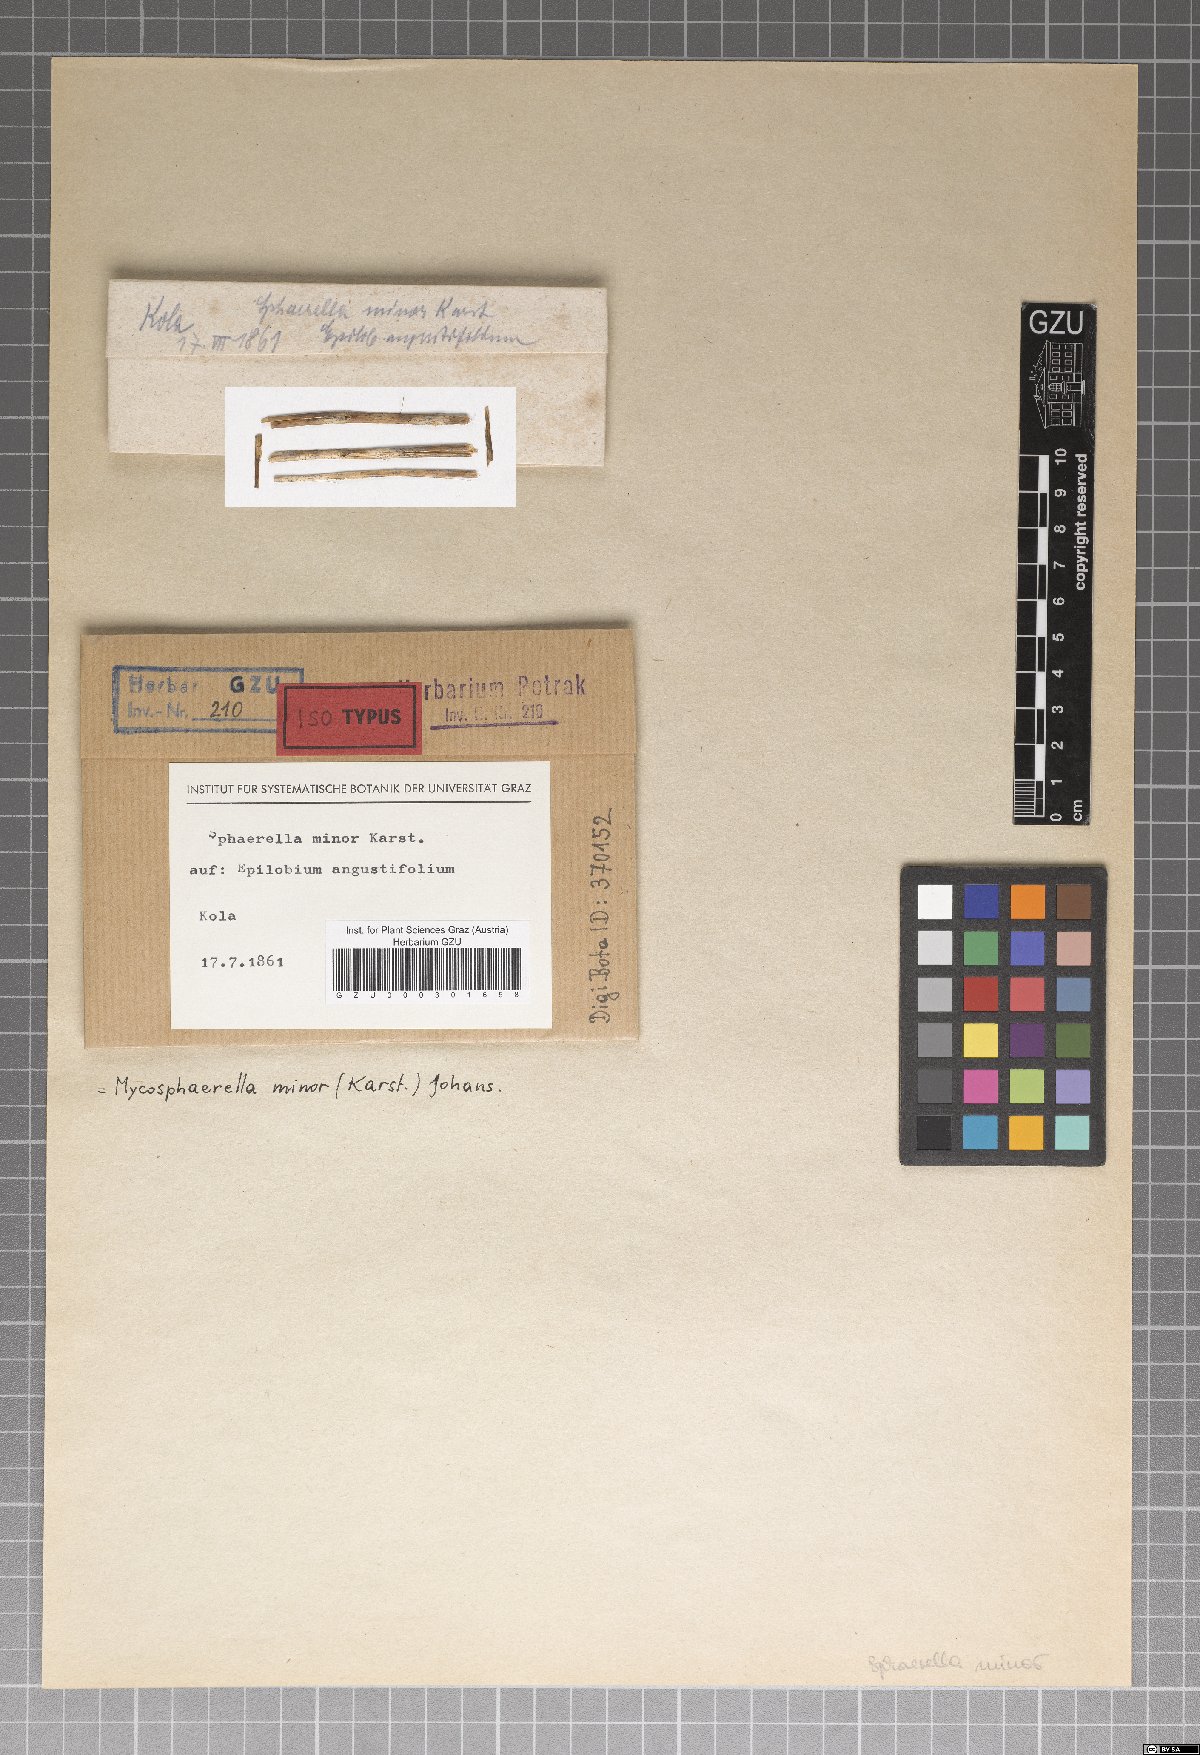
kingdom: Fungi
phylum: Ascomycota
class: Dothideomycetes
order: Mycosphaerellales
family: Mycosphaerellaceae
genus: Mycosphaerella
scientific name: Mycosphaerella minor
